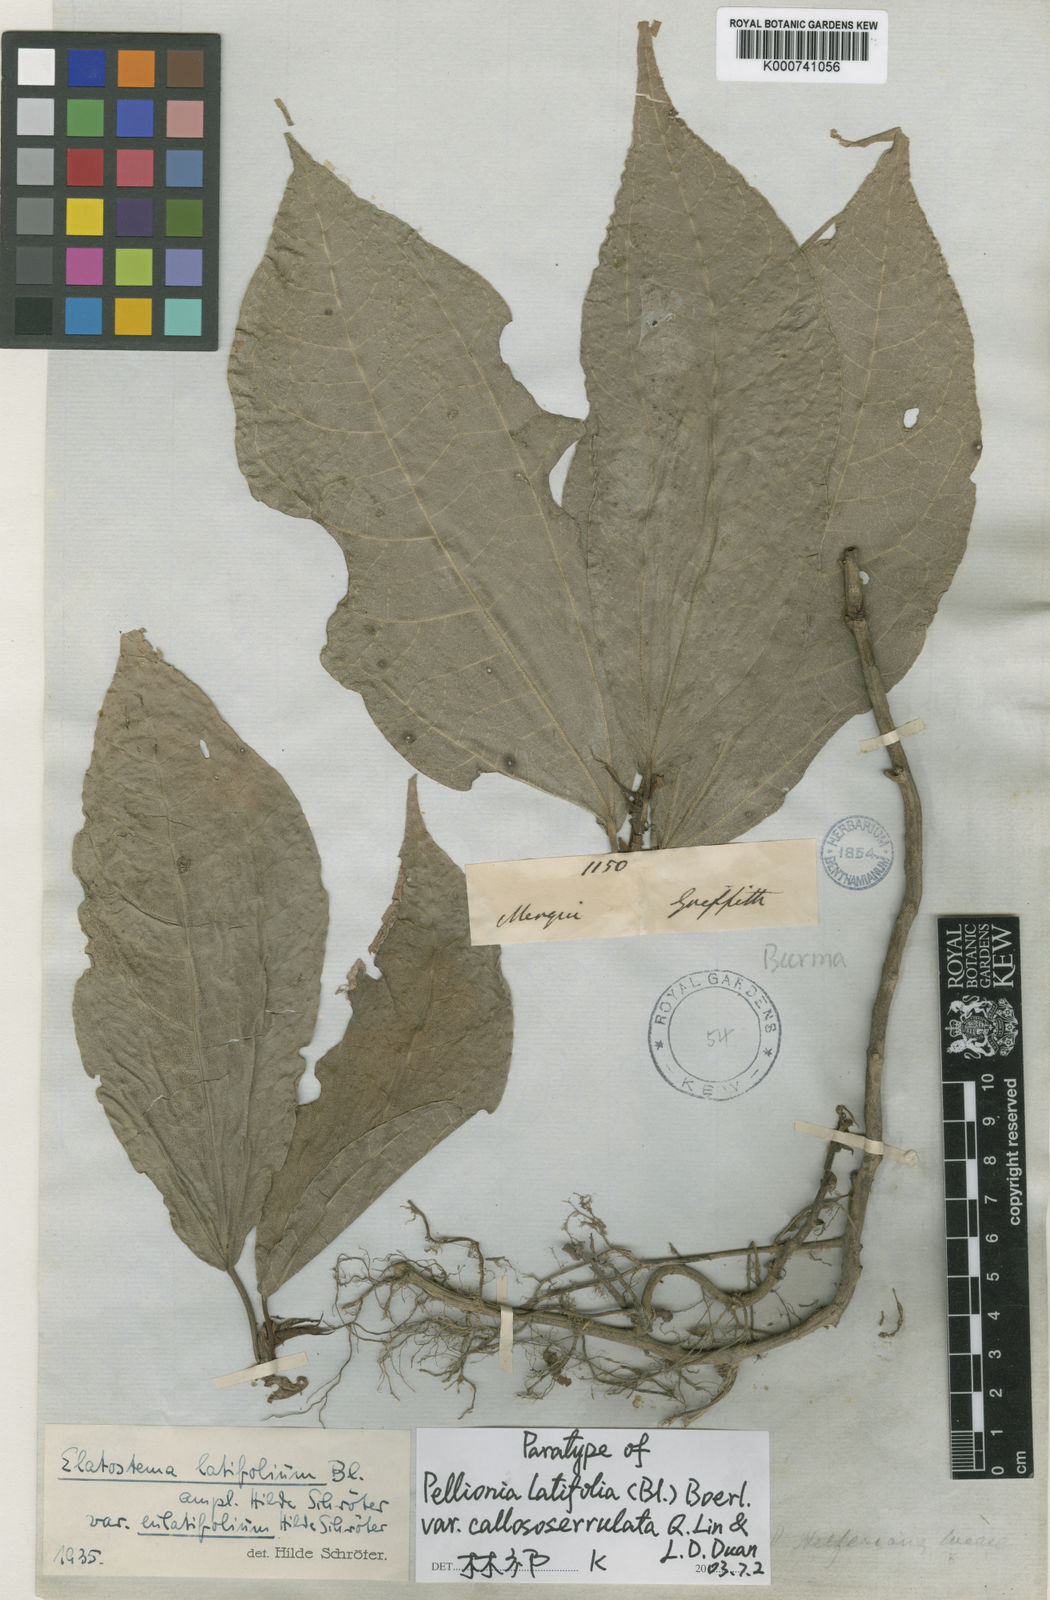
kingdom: Plantae
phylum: Tracheophyta
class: Magnoliopsida
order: Rosales
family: Urticaceae
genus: Elatostema
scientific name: Elatostema latifolium
